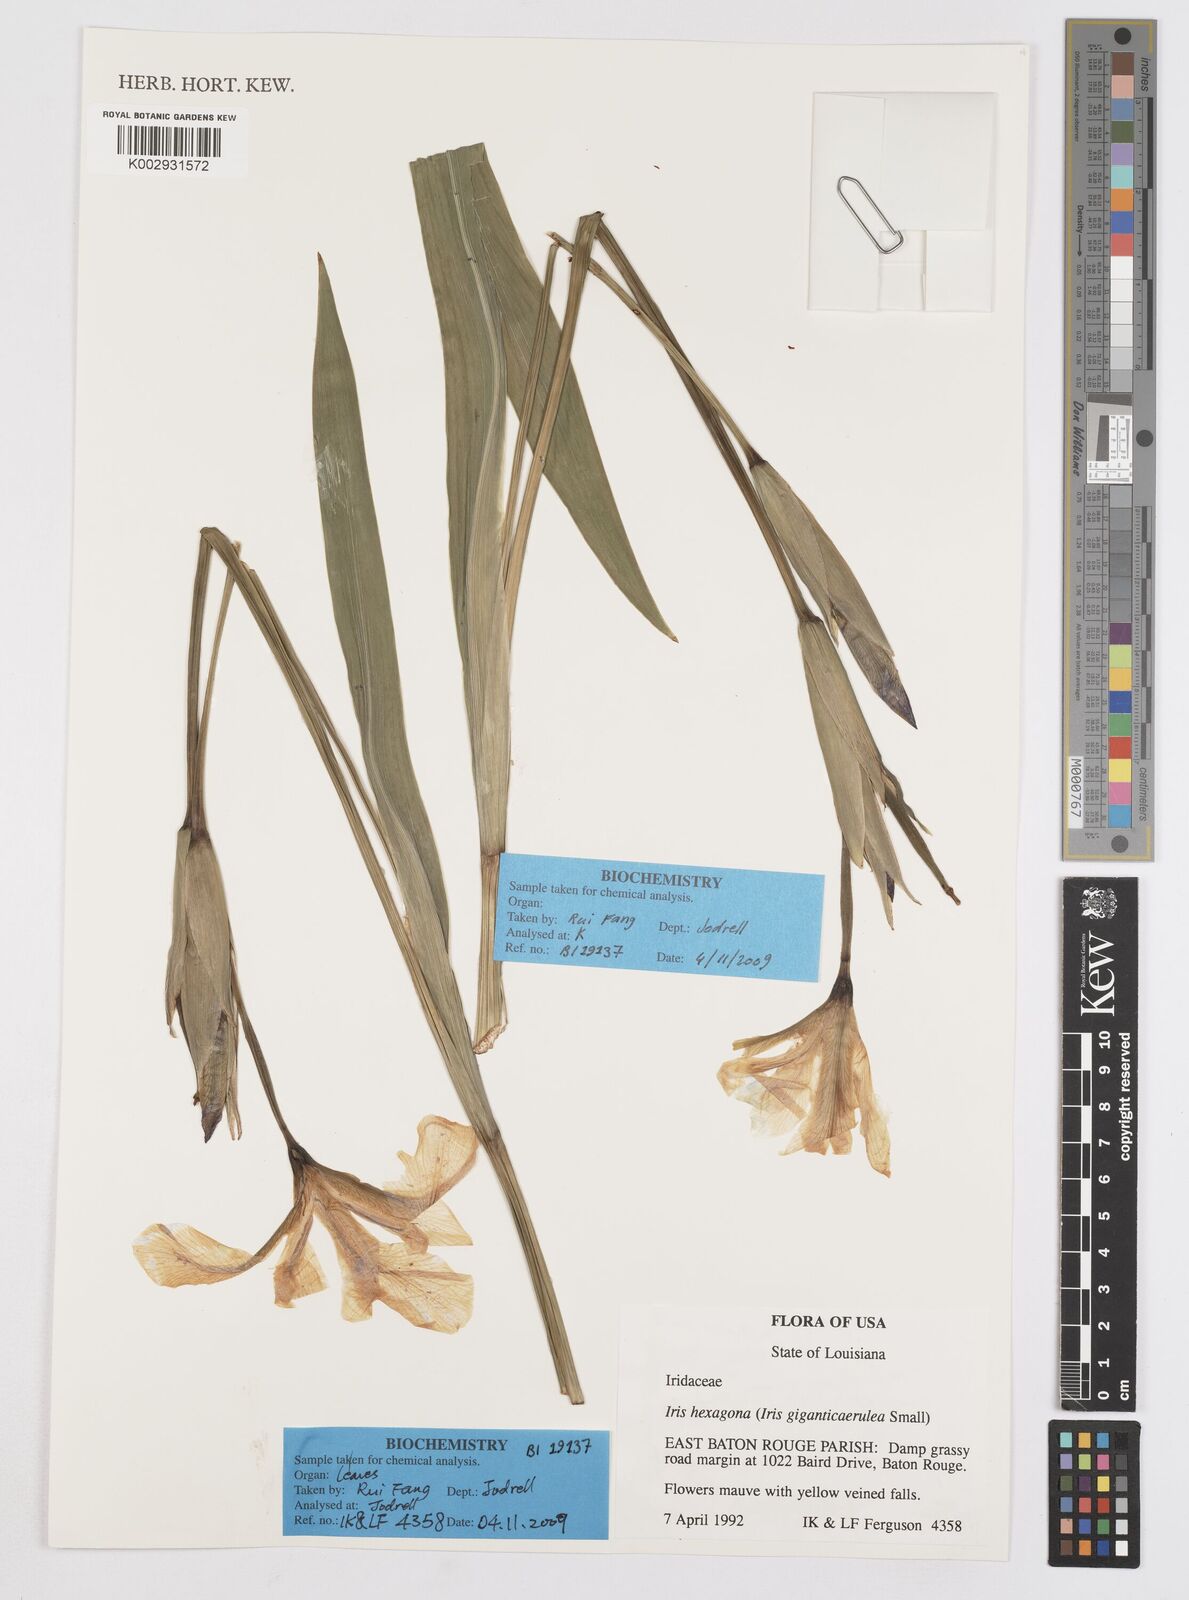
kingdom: Plantae
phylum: Tracheophyta
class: Liliopsida
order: Asparagales
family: Iridaceae
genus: Iris
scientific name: Iris hexagona
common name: Carolina iris
